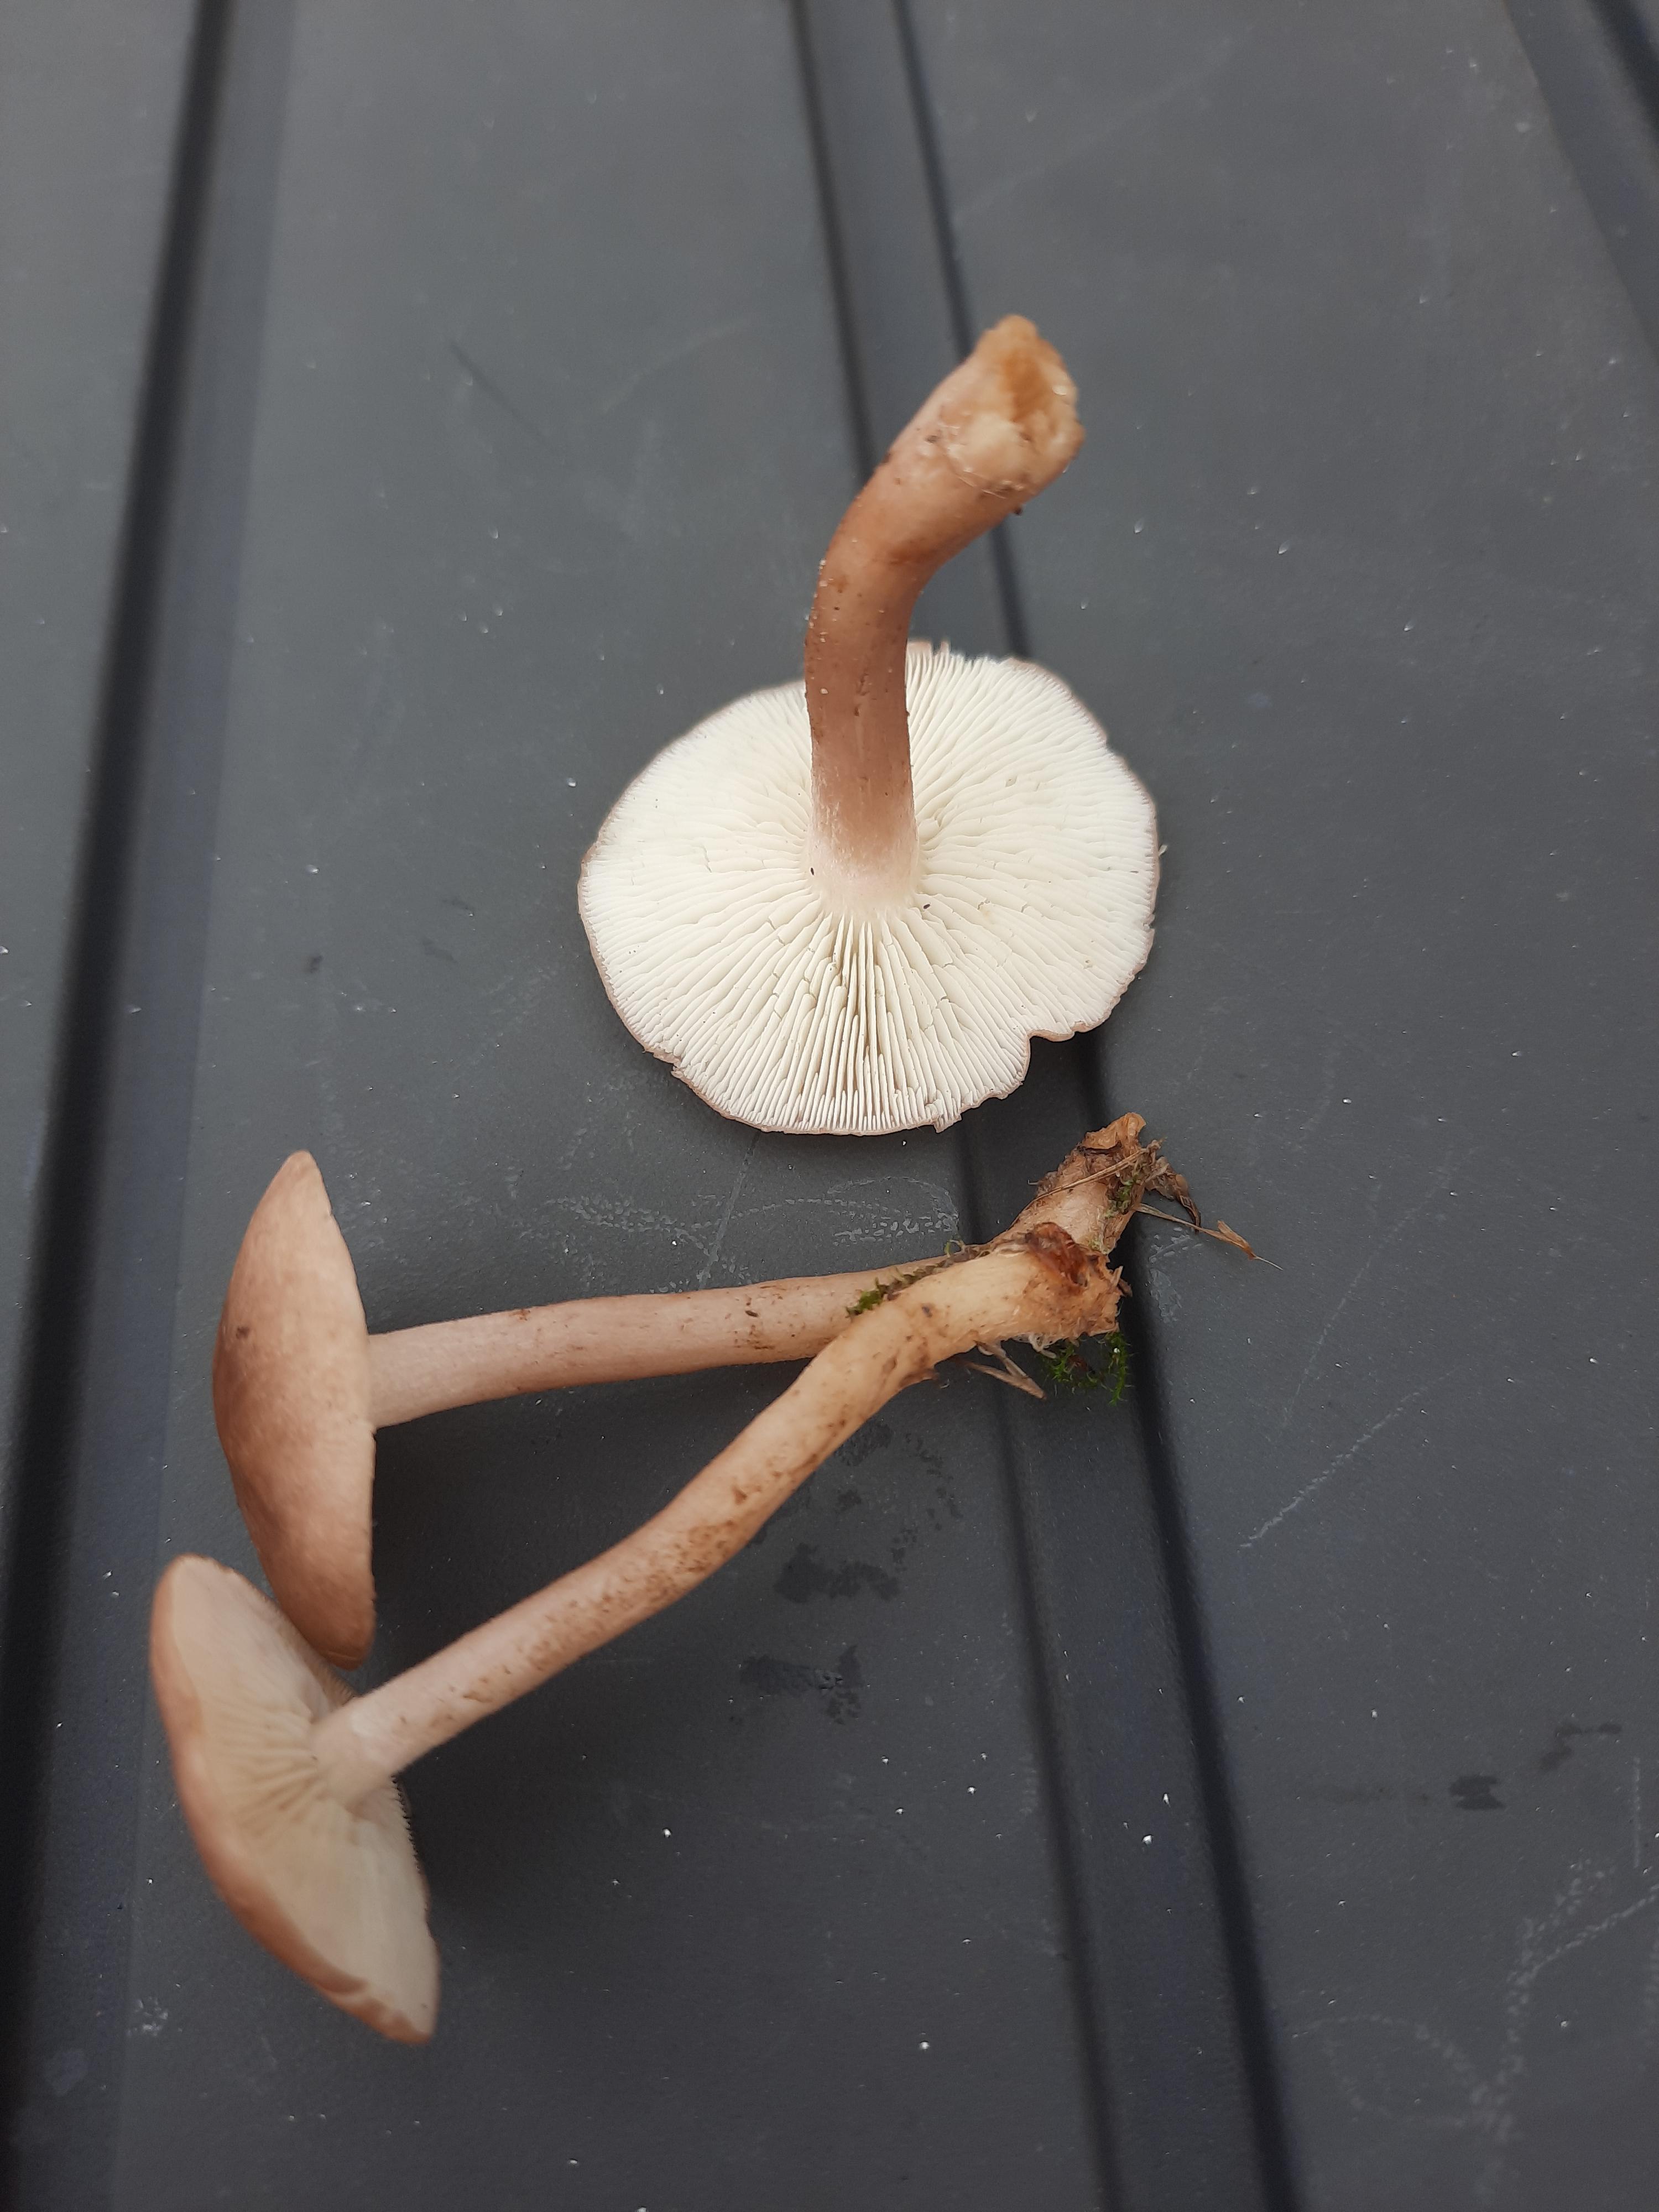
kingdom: Fungi
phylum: Basidiomycota
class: Agaricomycetes
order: Agaricales
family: Lyophyllaceae
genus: Calocybe
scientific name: Calocybe carnea
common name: rosa fagerhat
